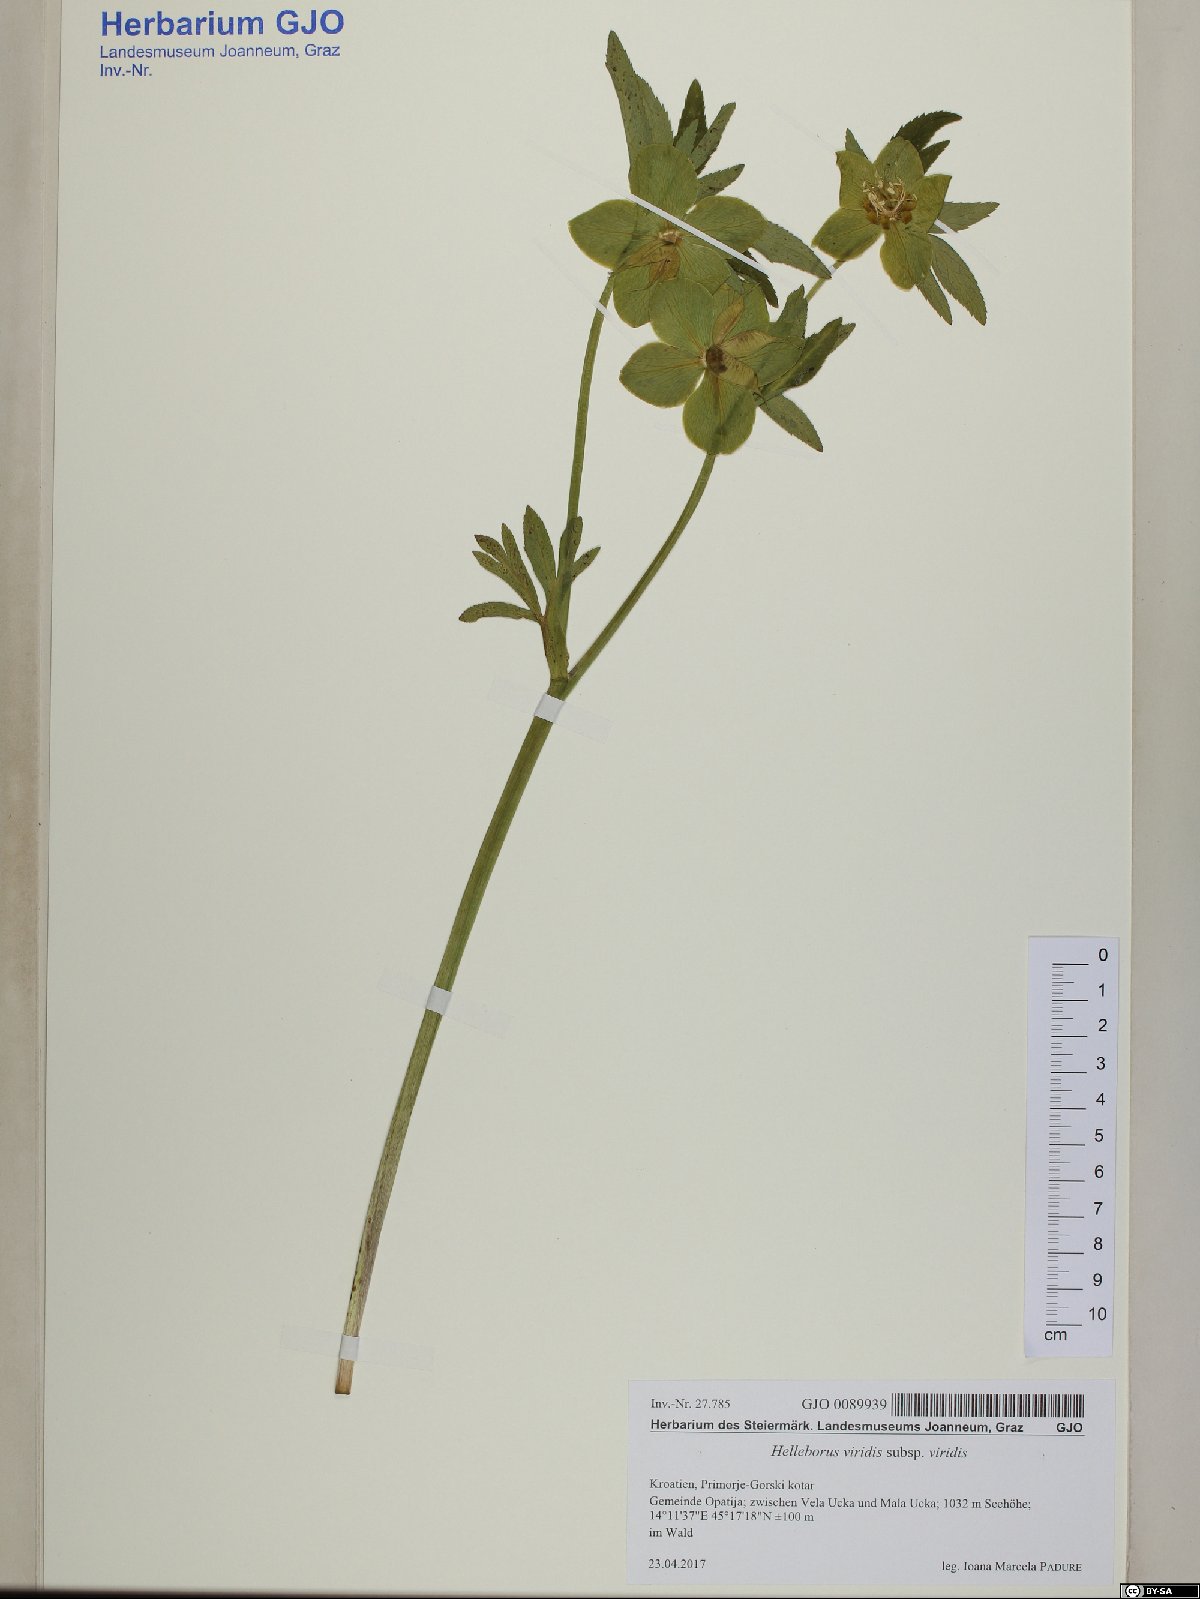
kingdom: Plantae
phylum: Tracheophyta
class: Magnoliopsida
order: Ranunculales
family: Ranunculaceae
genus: Helleborus
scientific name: Helleborus viridis
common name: Green hellebore
